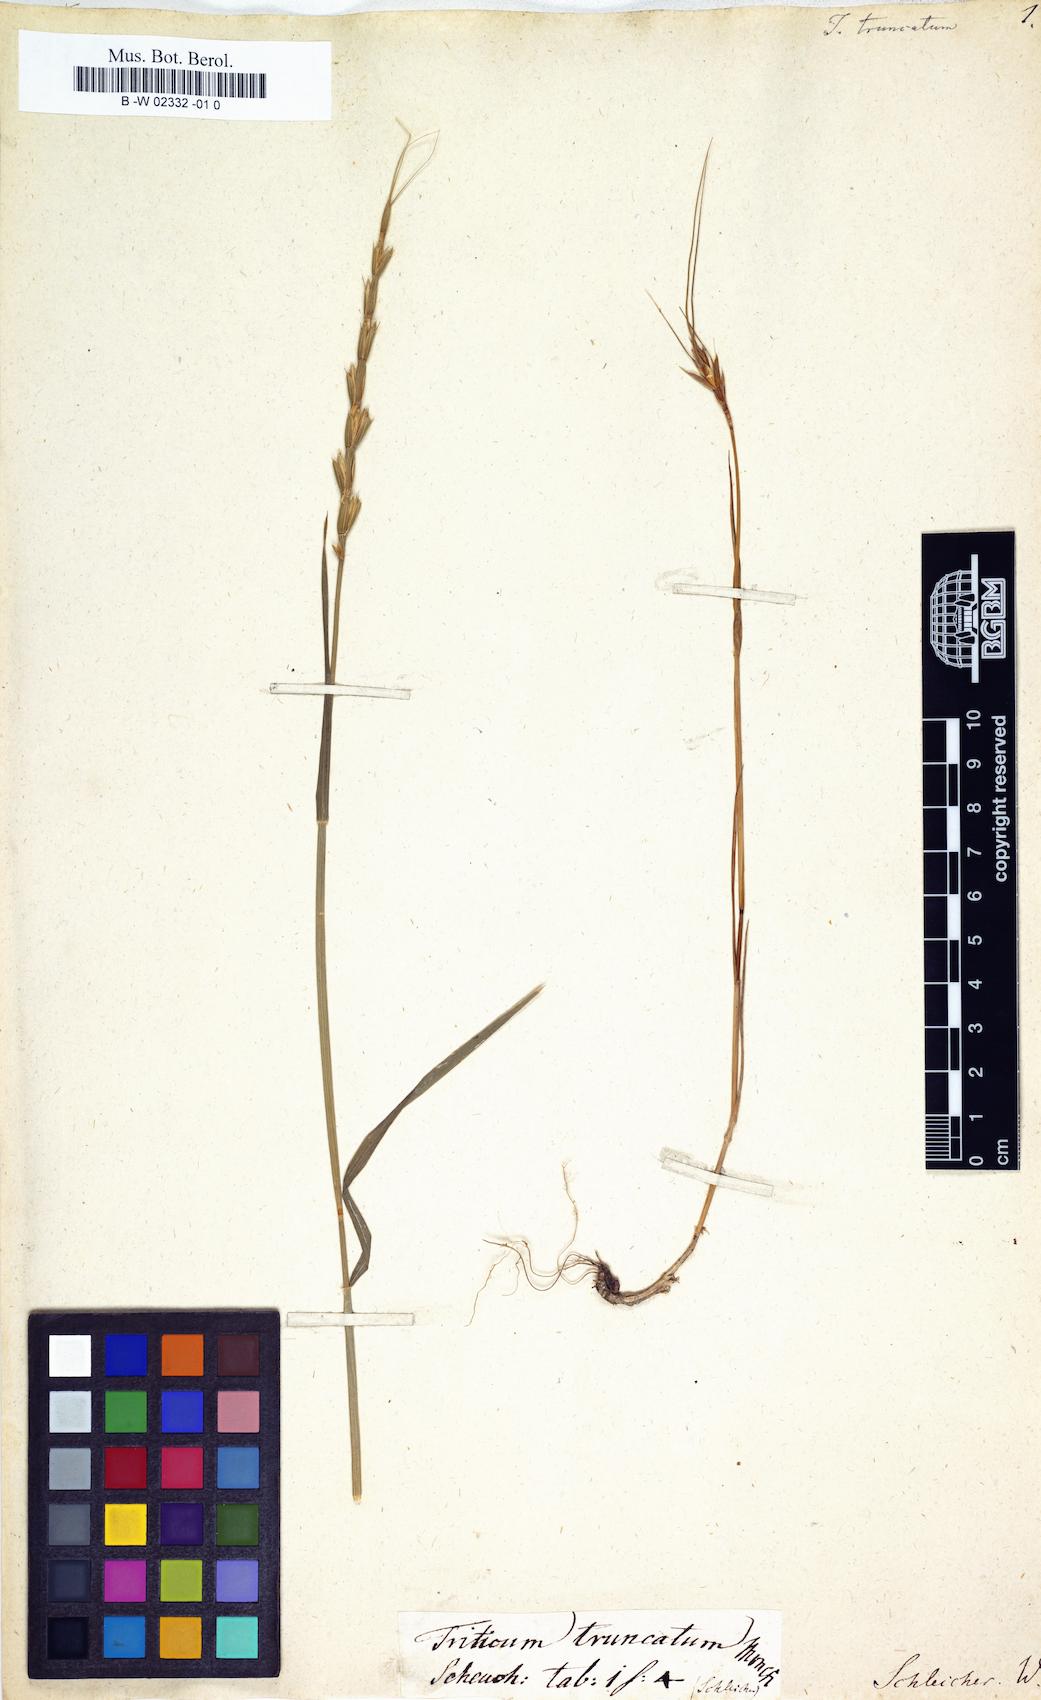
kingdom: Plantae
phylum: Tracheophyta
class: Liliopsida
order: Poales
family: Poaceae
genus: Aegilops
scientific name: Aegilops cylindrica
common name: Jointed goatgrass
